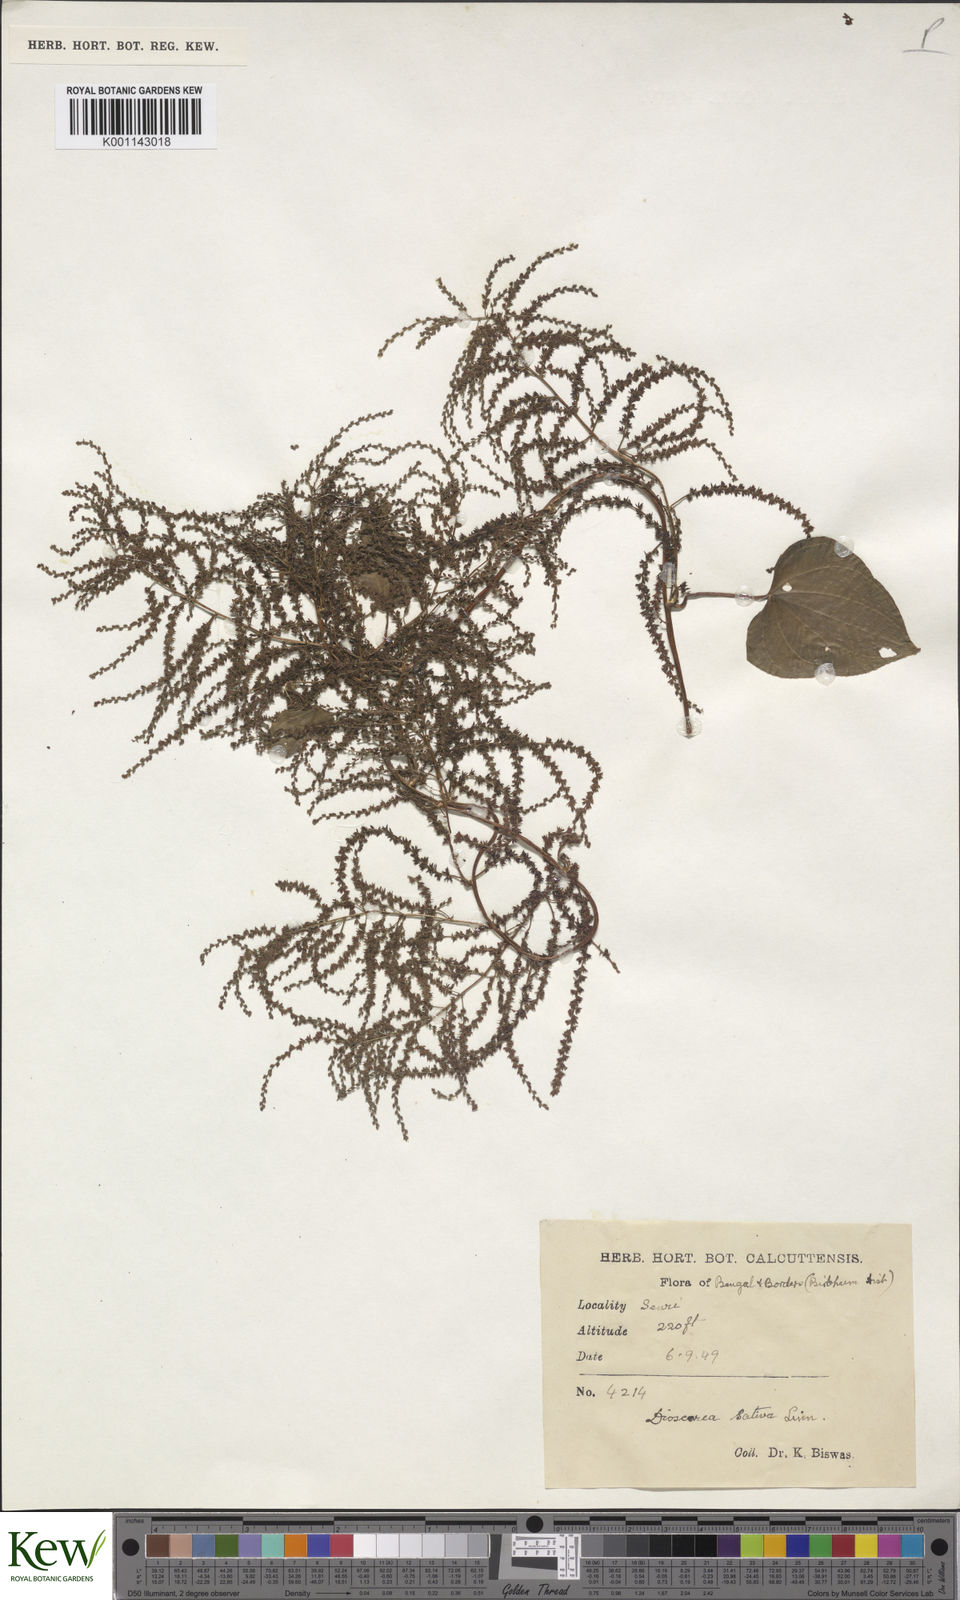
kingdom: Plantae
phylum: Tracheophyta
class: Liliopsida
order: Dioscoreales
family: Dioscoreaceae
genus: Dioscorea
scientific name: Dioscorea villosa
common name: Wild yam
